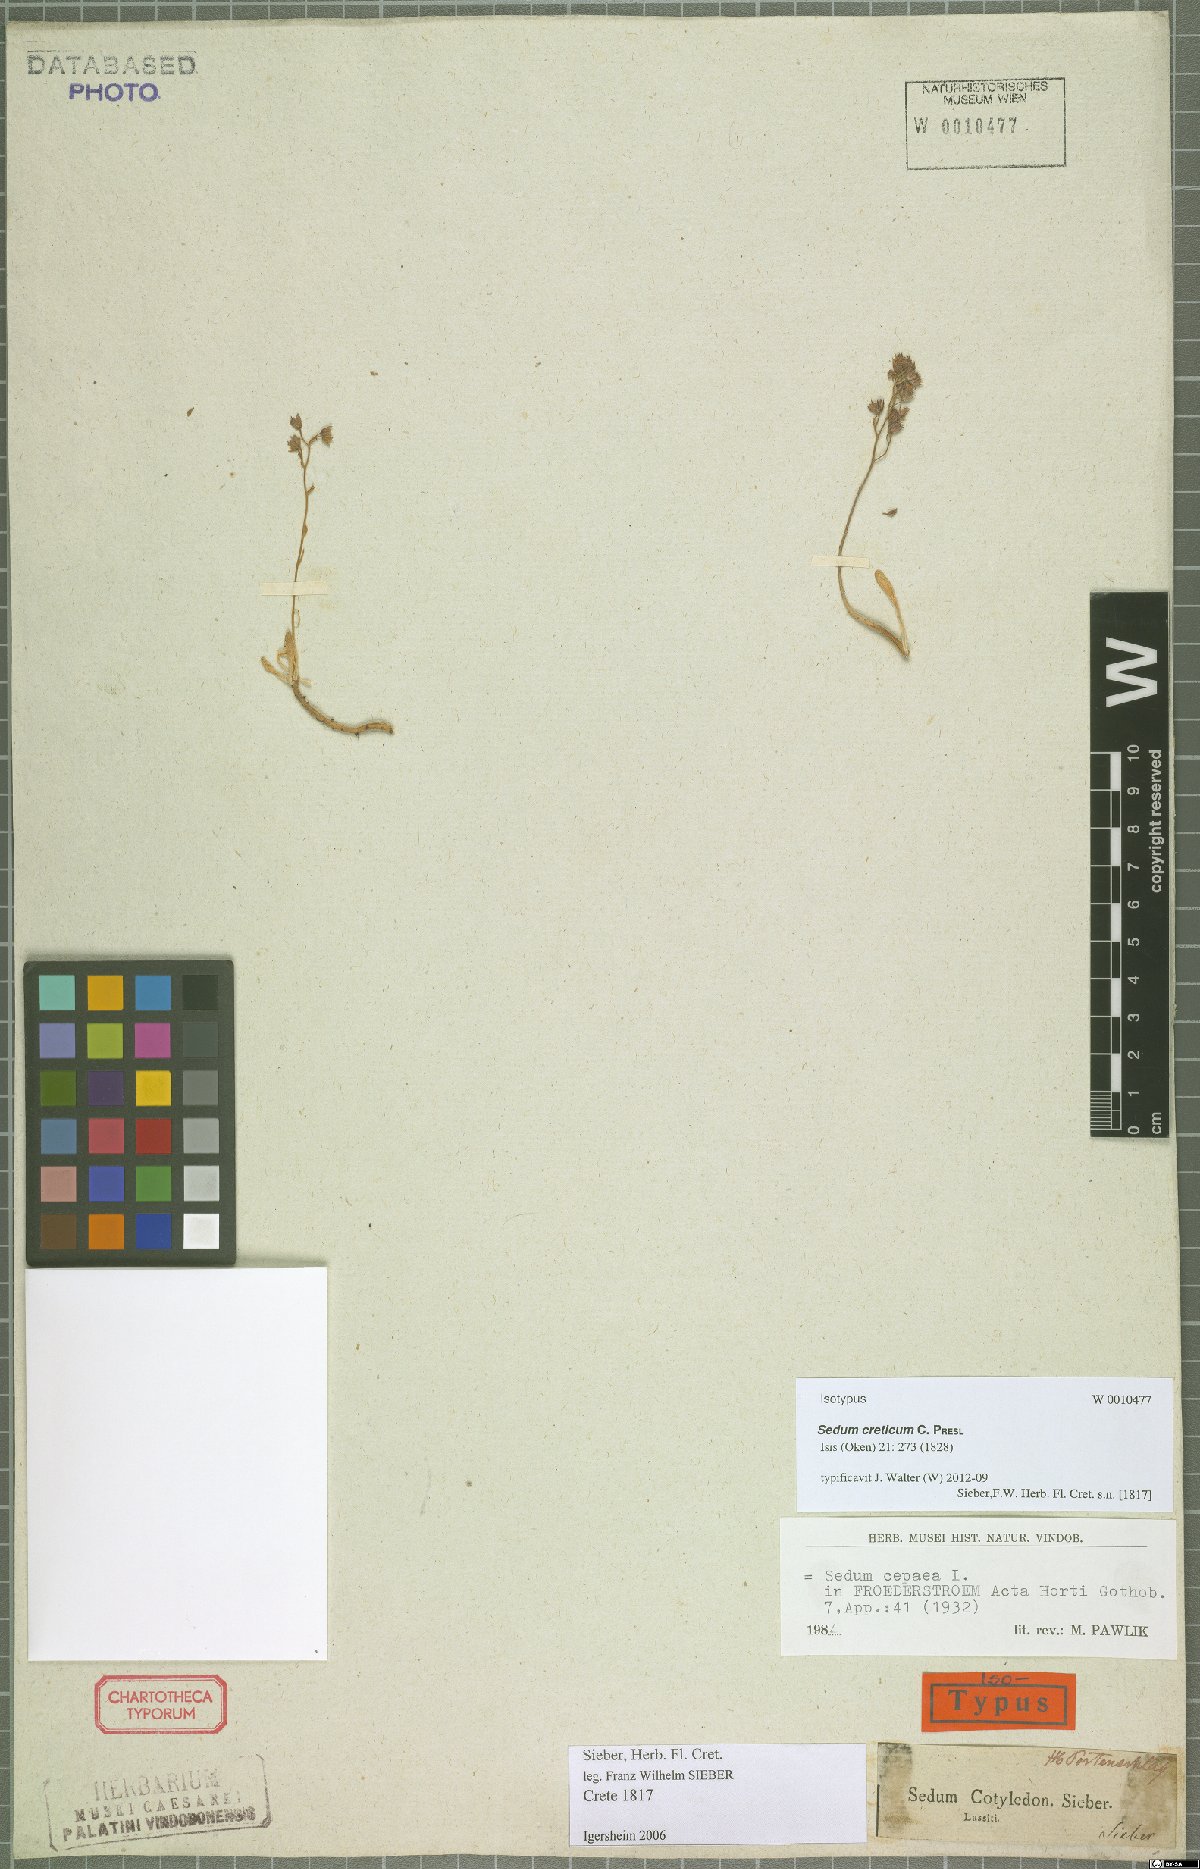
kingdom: Plantae
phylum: Tracheophyta
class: Magnoliopsida
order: Saxifragales
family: Crassulaceae
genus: Sedum
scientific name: Sedum creticum
